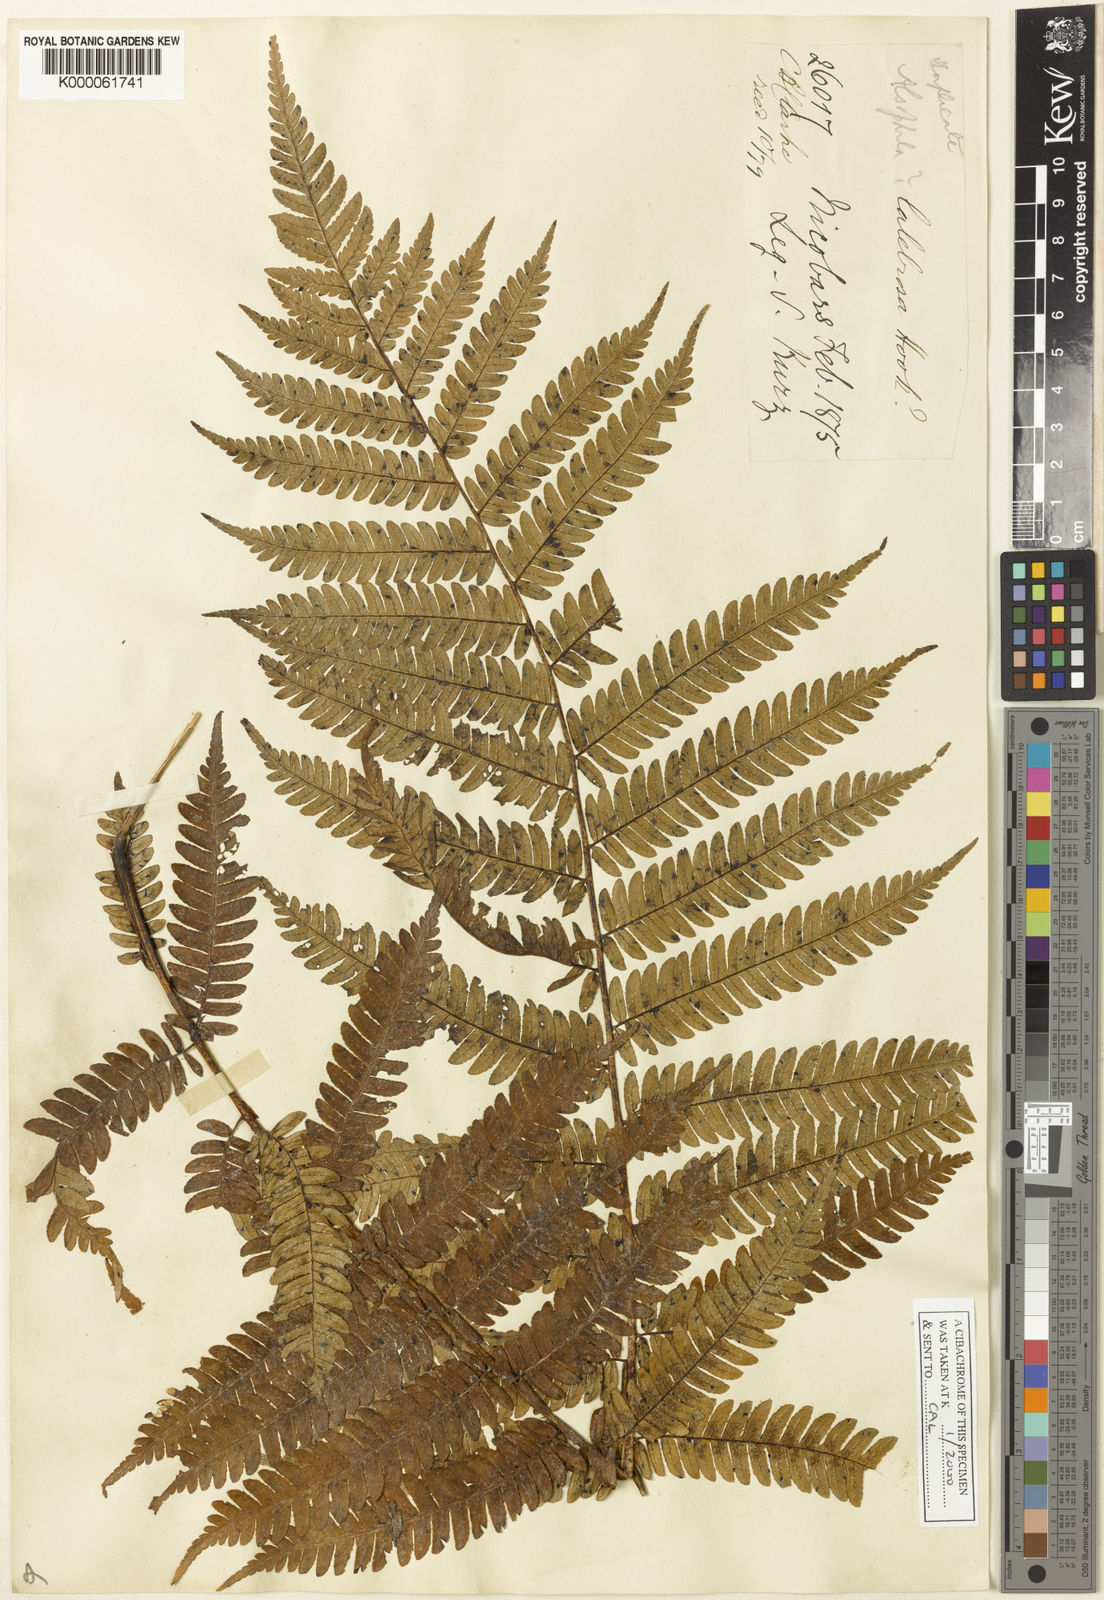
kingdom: Plantae
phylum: Tracheophyta
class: Polypodiopsida
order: Cyatheales
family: Cyatheaceae
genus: Sphaeropteris
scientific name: Sphaeropteris albosetacea
